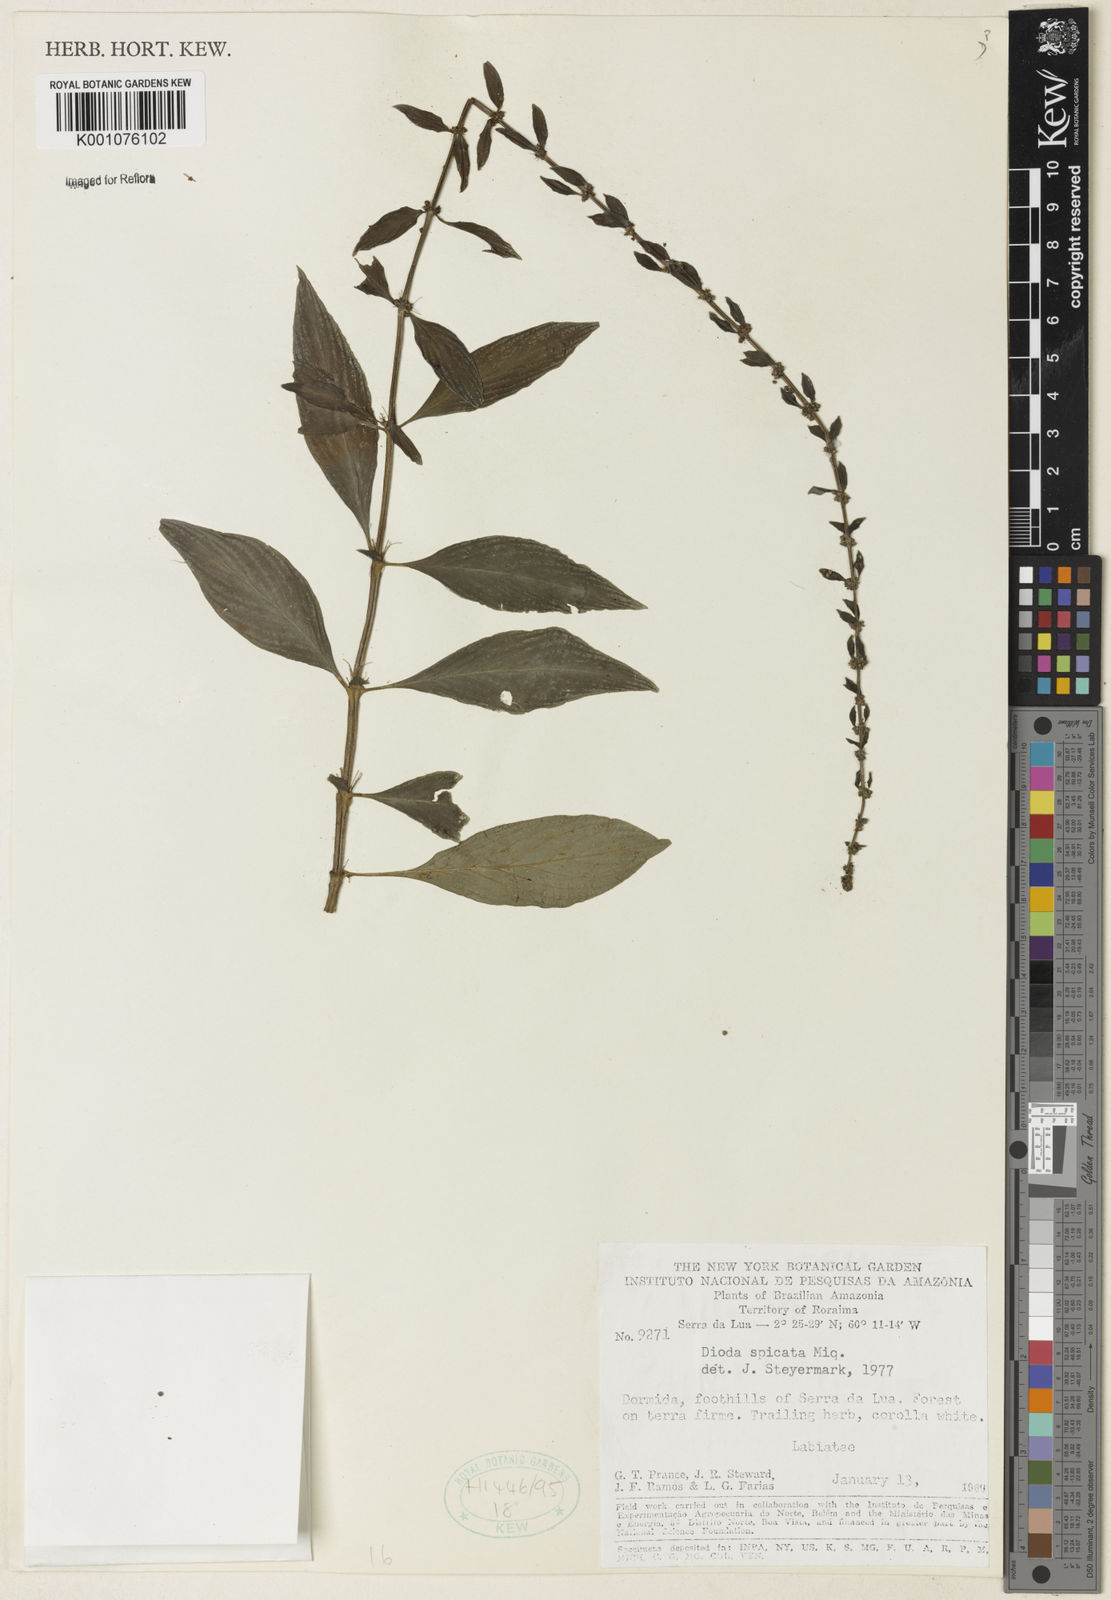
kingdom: Plantae
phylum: Tracheophyta
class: Magnoliopsida
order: Gentianales
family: Rubiaceae
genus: Hexasepalum
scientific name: Hexasepalum
